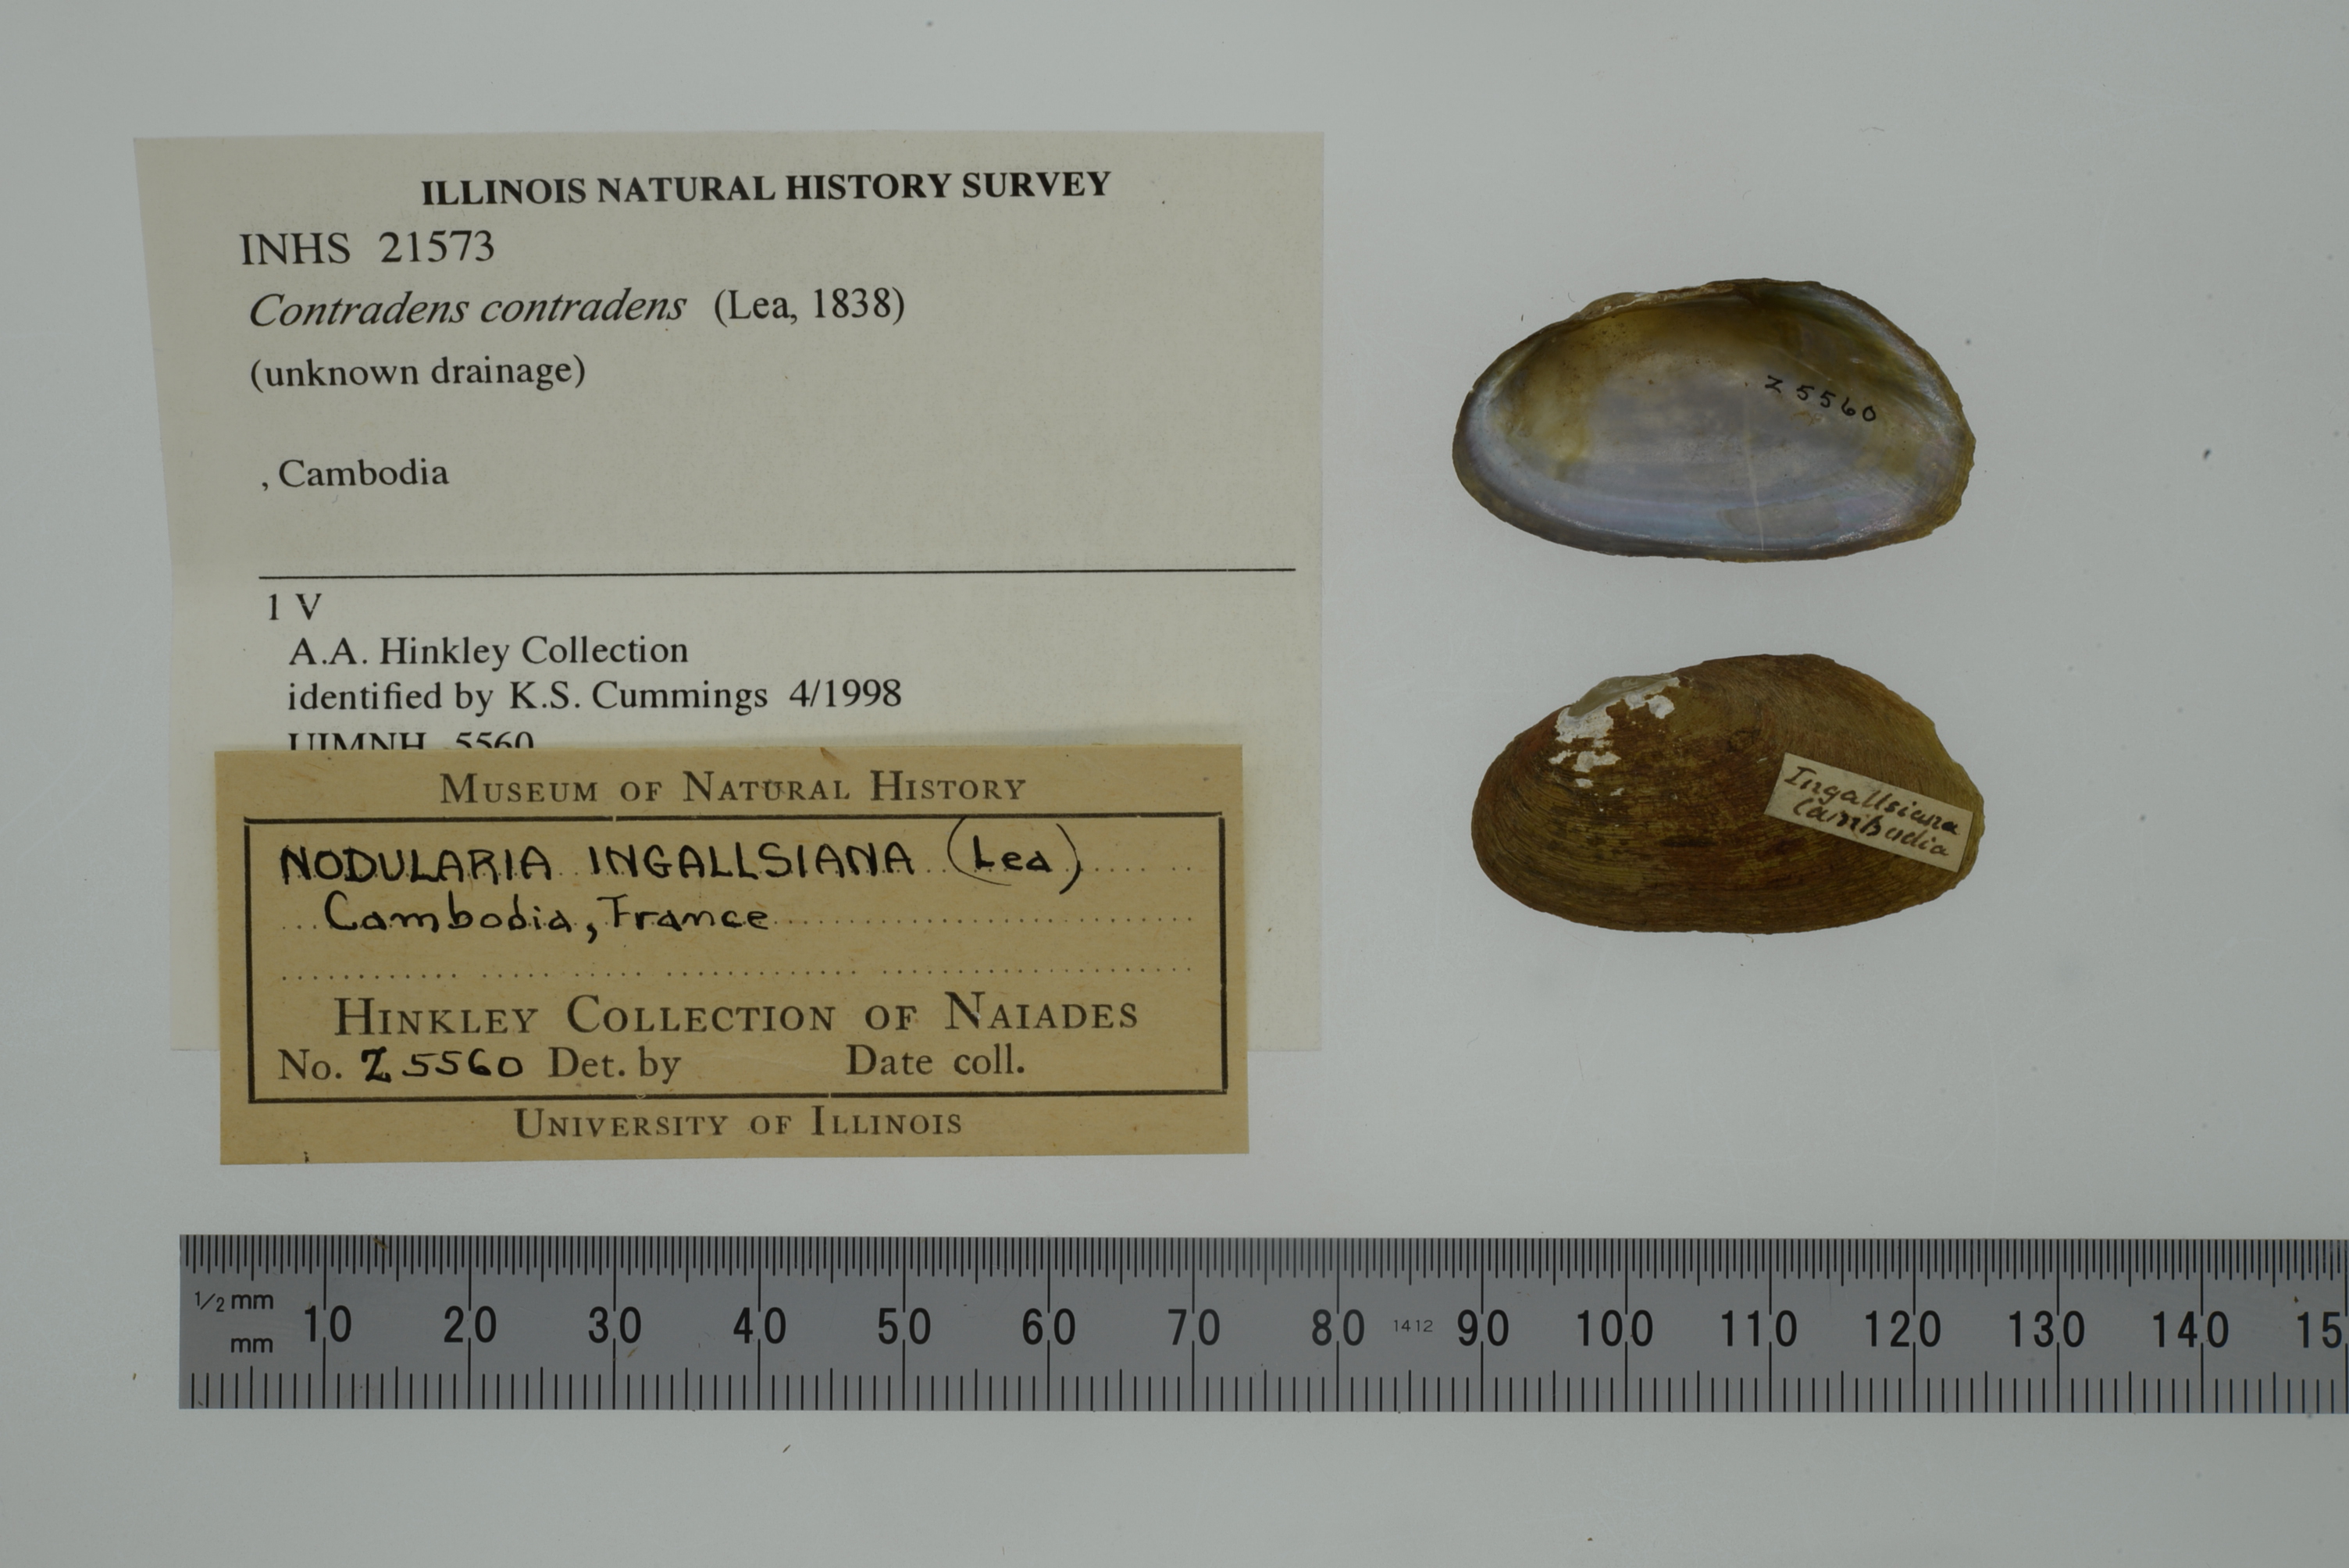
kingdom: Animalia
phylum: Mollusca
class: Bivalvia
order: Unionida
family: Unionidae
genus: Lens
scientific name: Lens contradens
